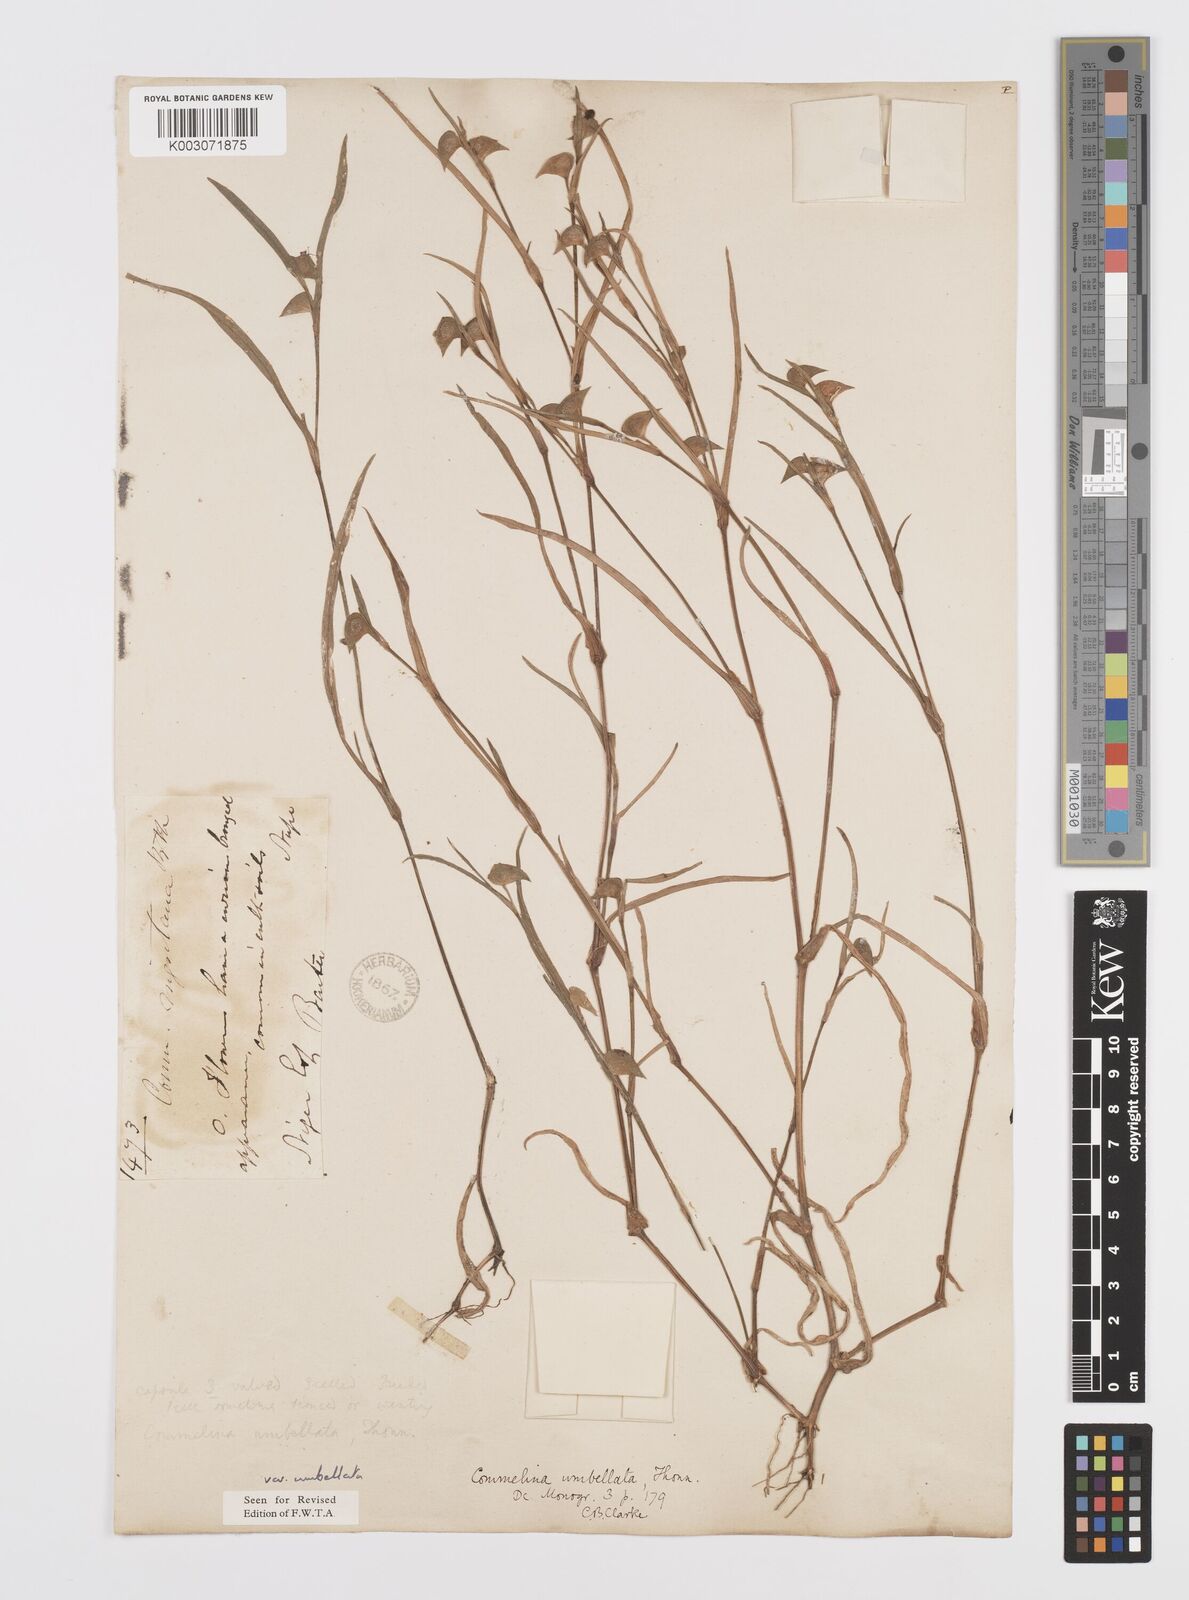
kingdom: Plantae
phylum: Tracheophyta
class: Liliopsida
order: Commelinales
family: Commelinaceae
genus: Commelina
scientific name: Commelina
